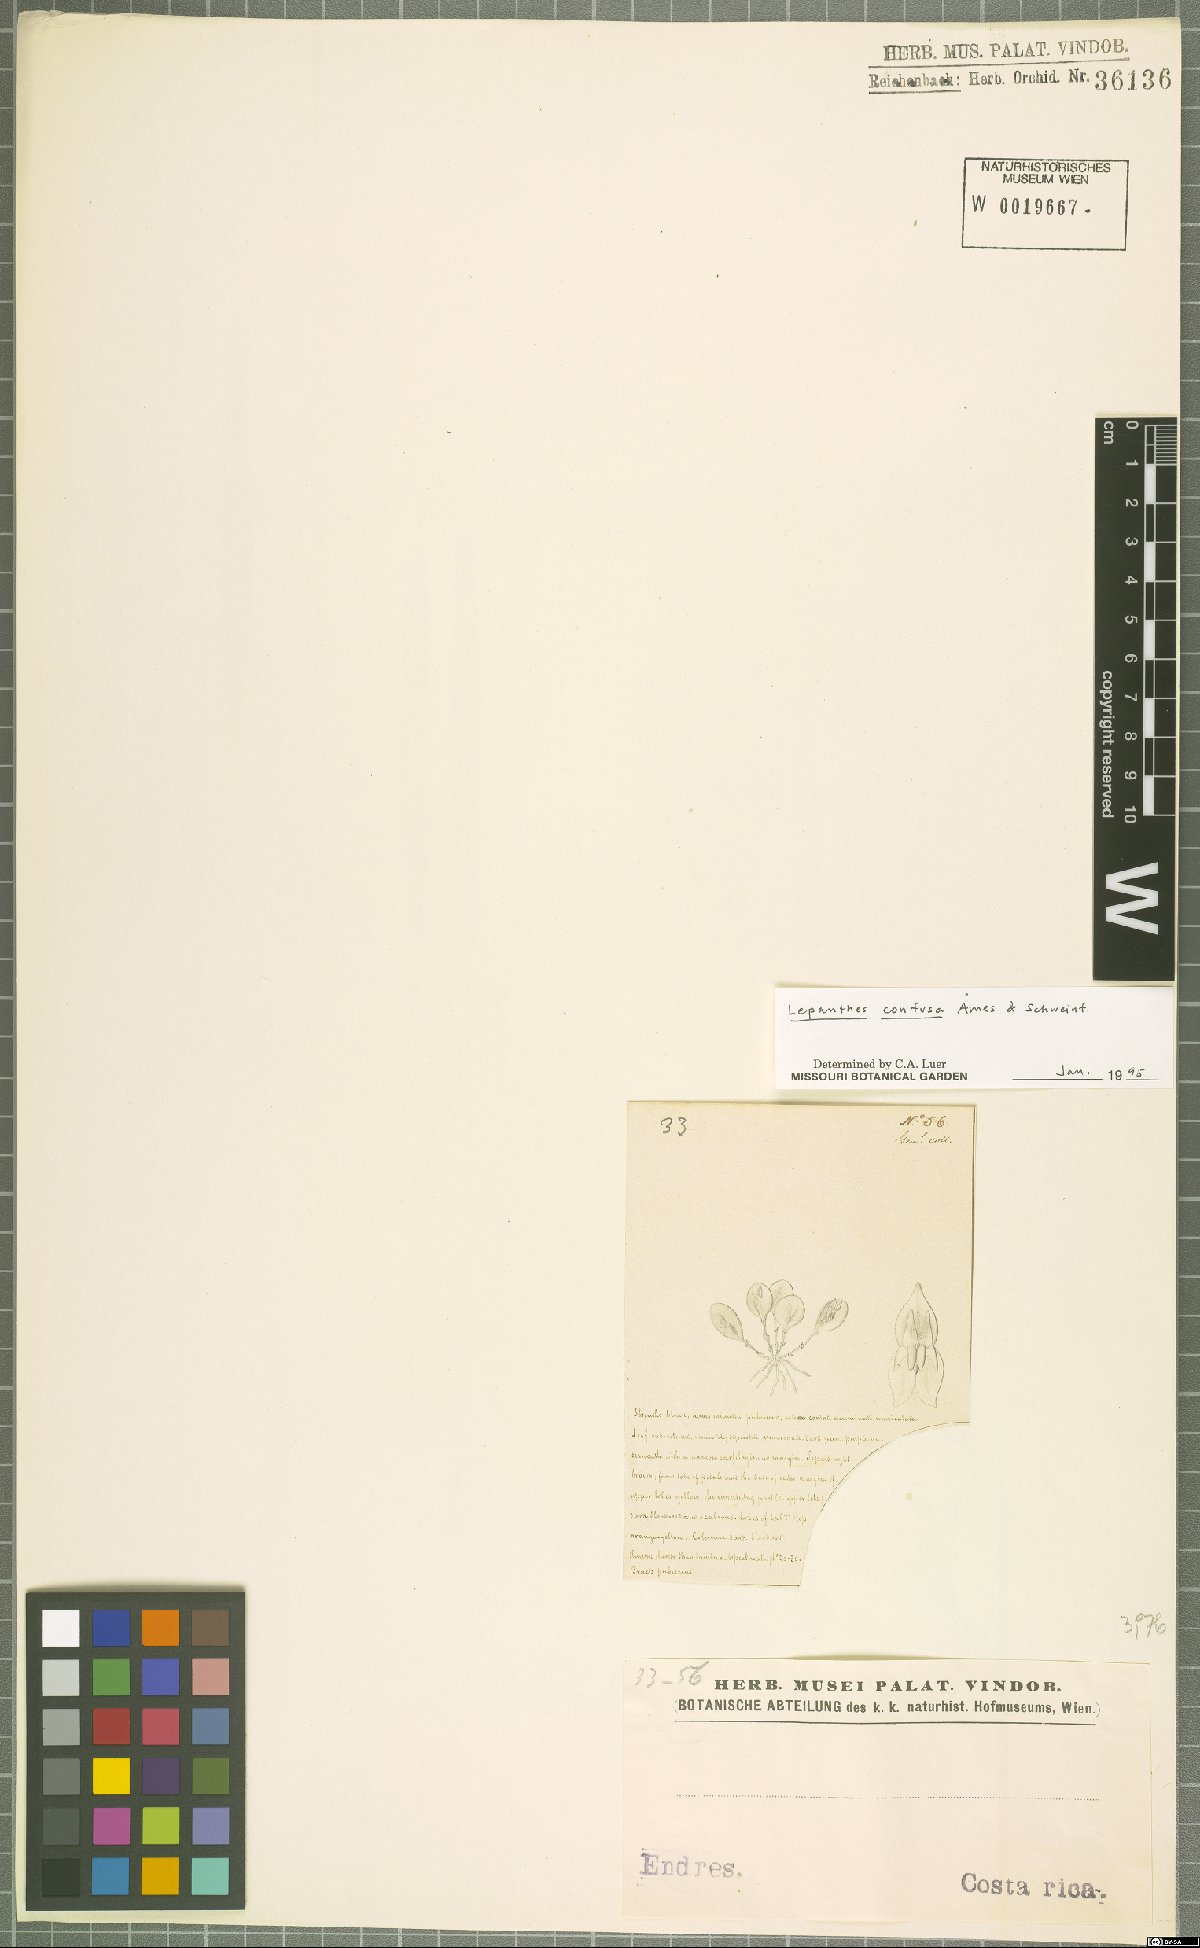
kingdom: Plantae
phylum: Tracheophyta
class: Liliopsida
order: Asparagales
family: Orchidaceae
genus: Lepanthes
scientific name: Lepanthes confusa
